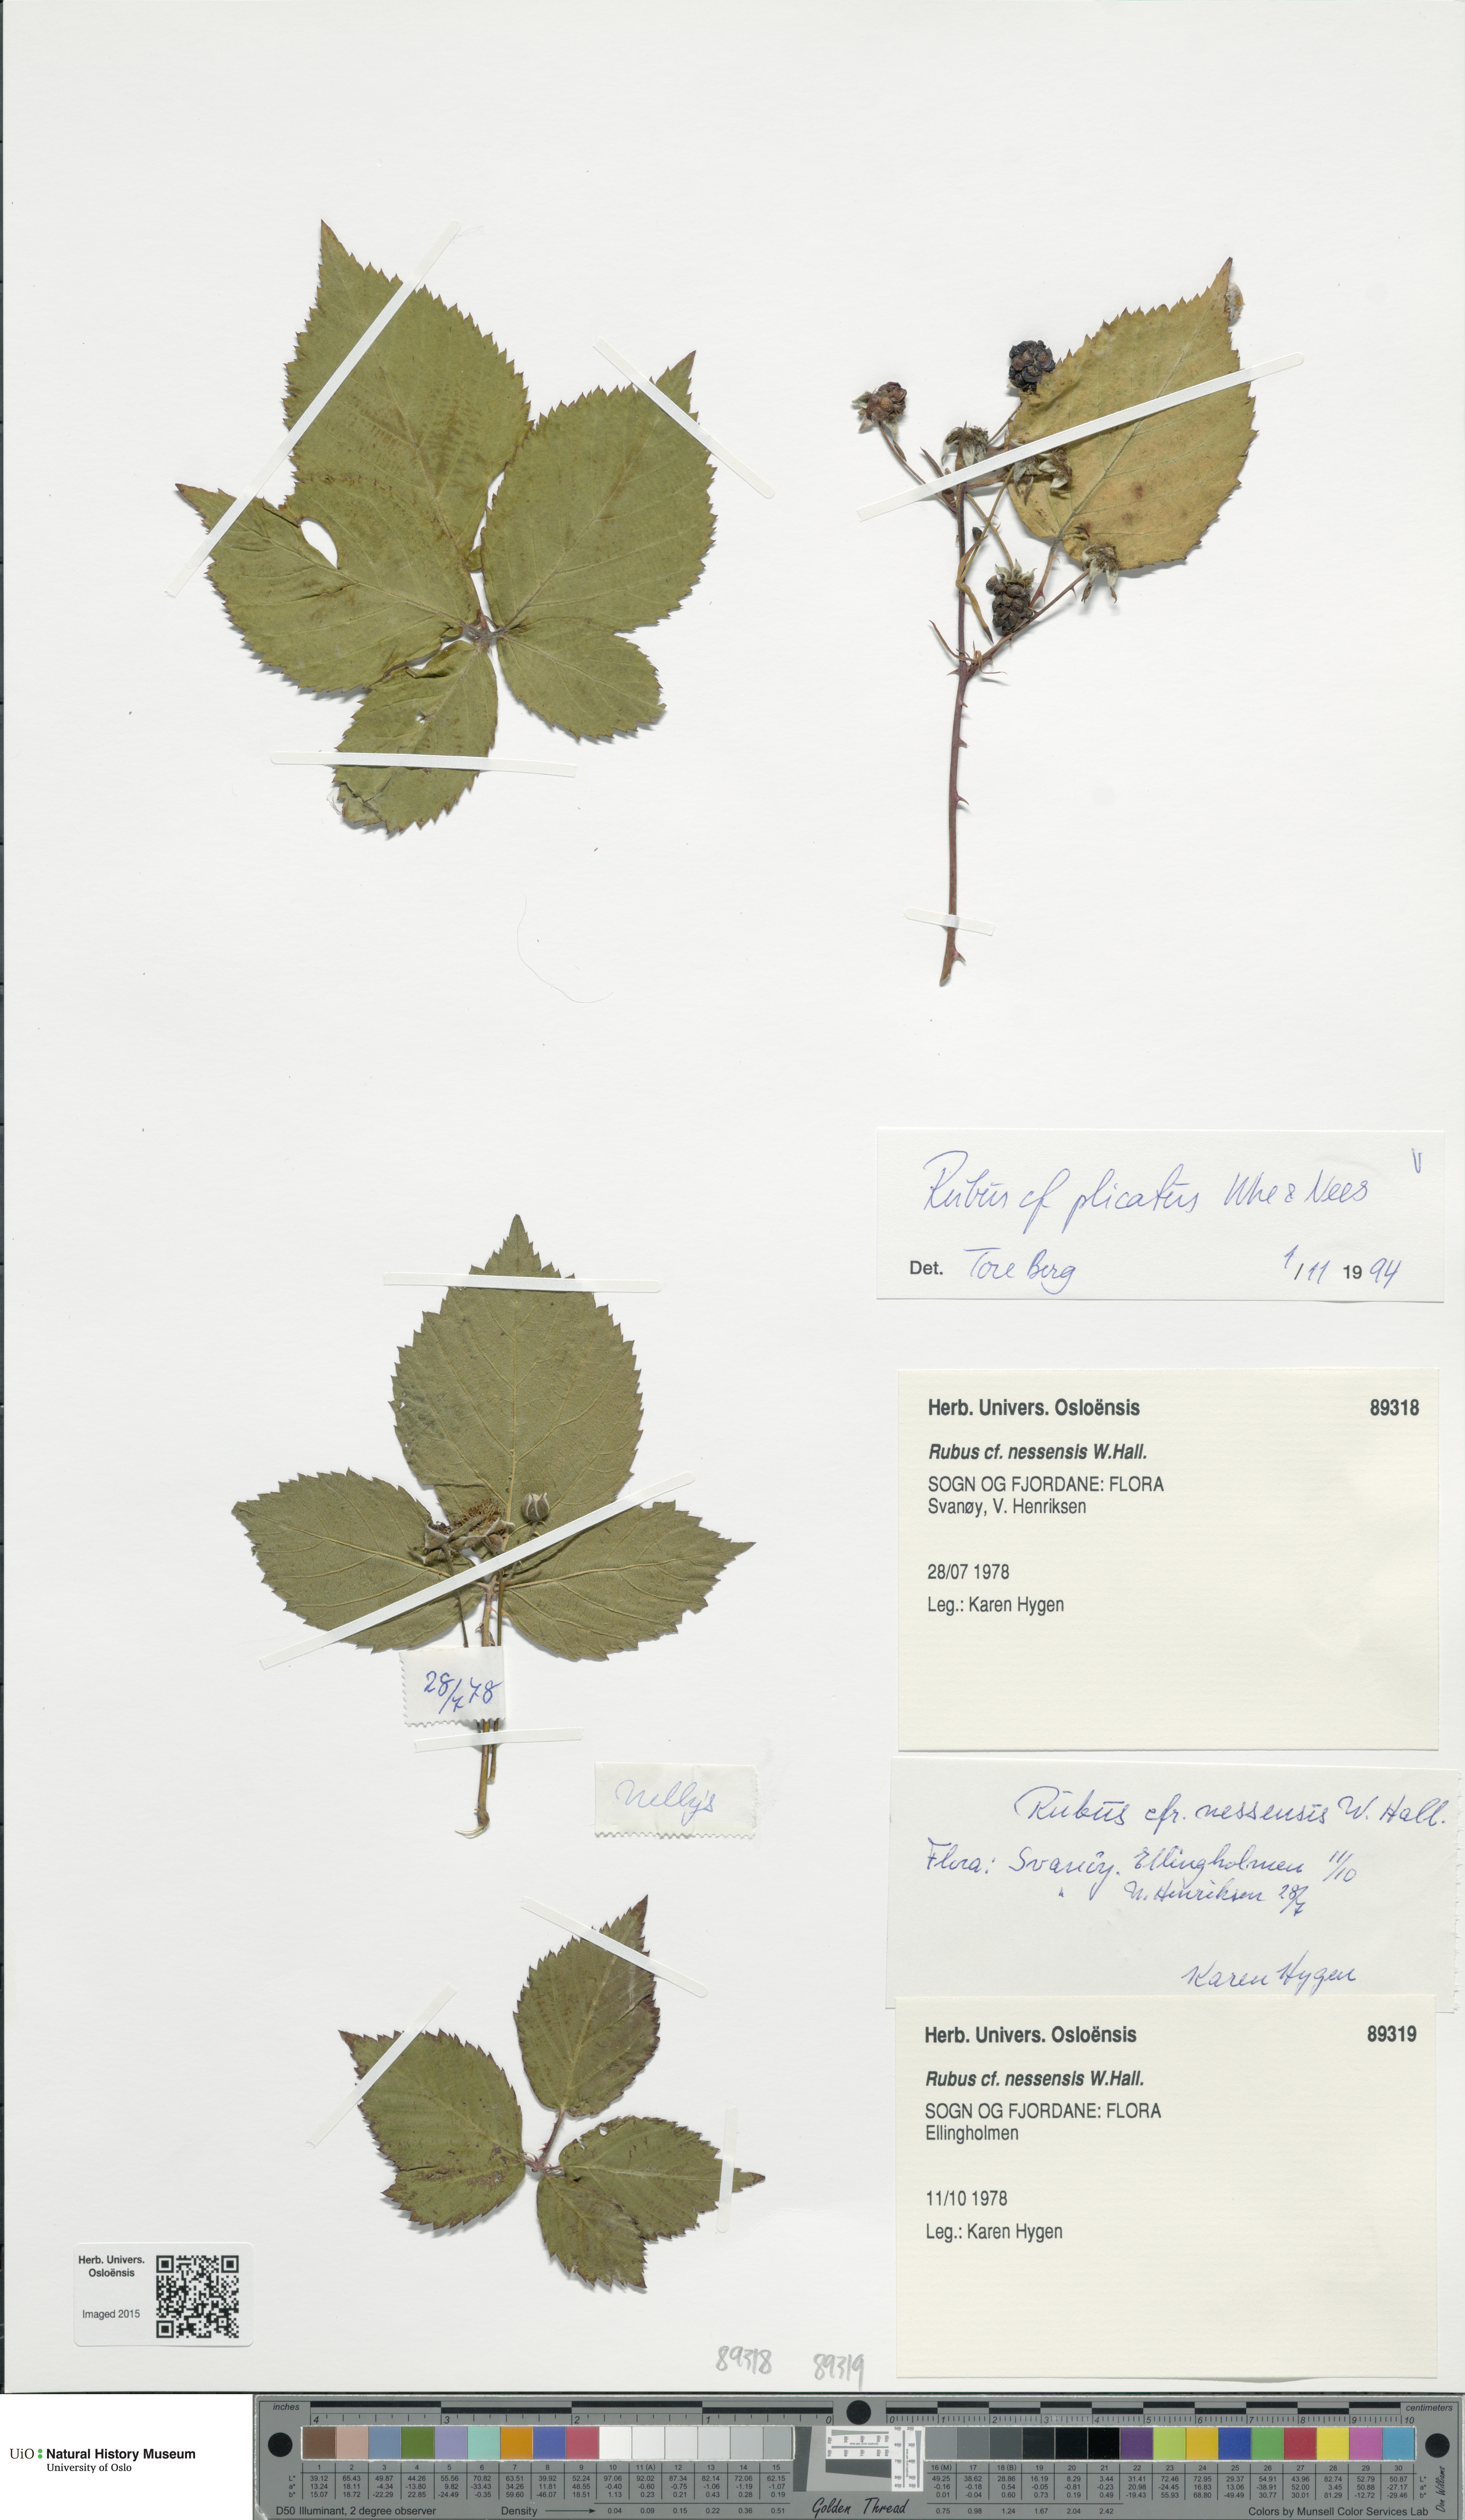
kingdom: Plantae
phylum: Tracheophyta
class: Magnoliopsida
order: Rosales
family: Rosaceae
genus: Rubus
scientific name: Rubus fruticosus
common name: Blackberry, bramble
